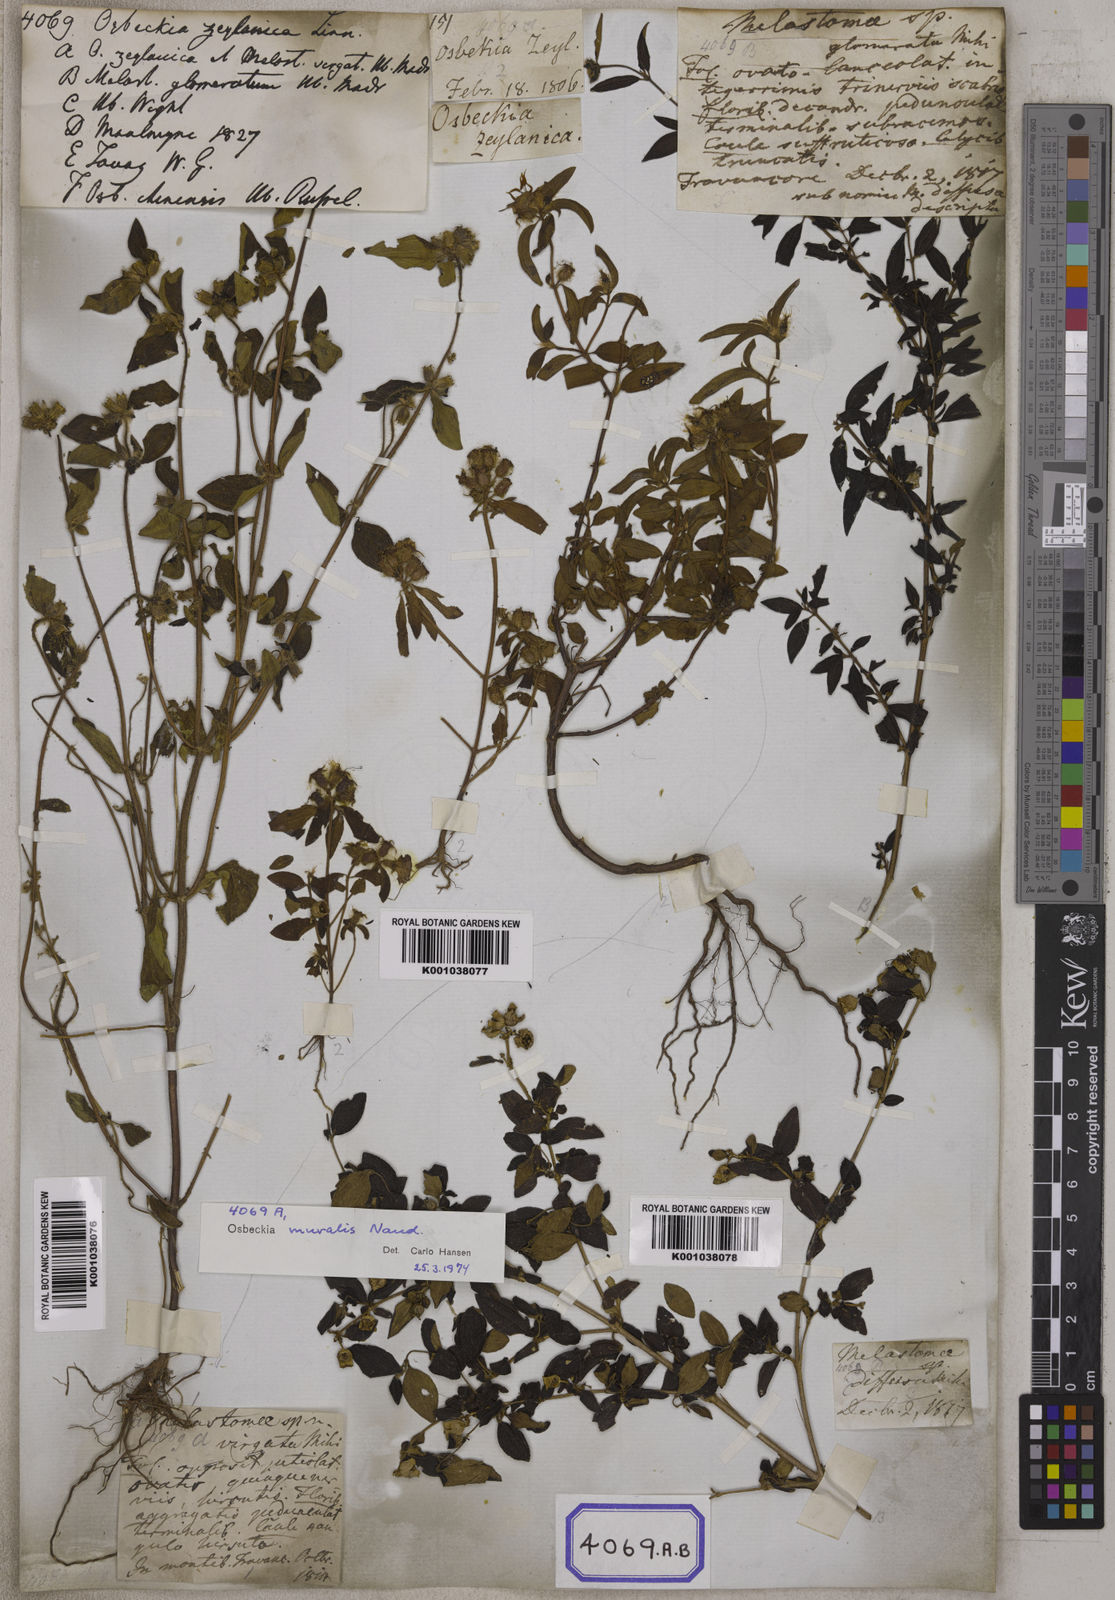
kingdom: Plantae
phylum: Tracheophyta
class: Magnoliopsida
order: Myrtales
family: Melastomataceae
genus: Osbeckia
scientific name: Osbeckia zeylanica
